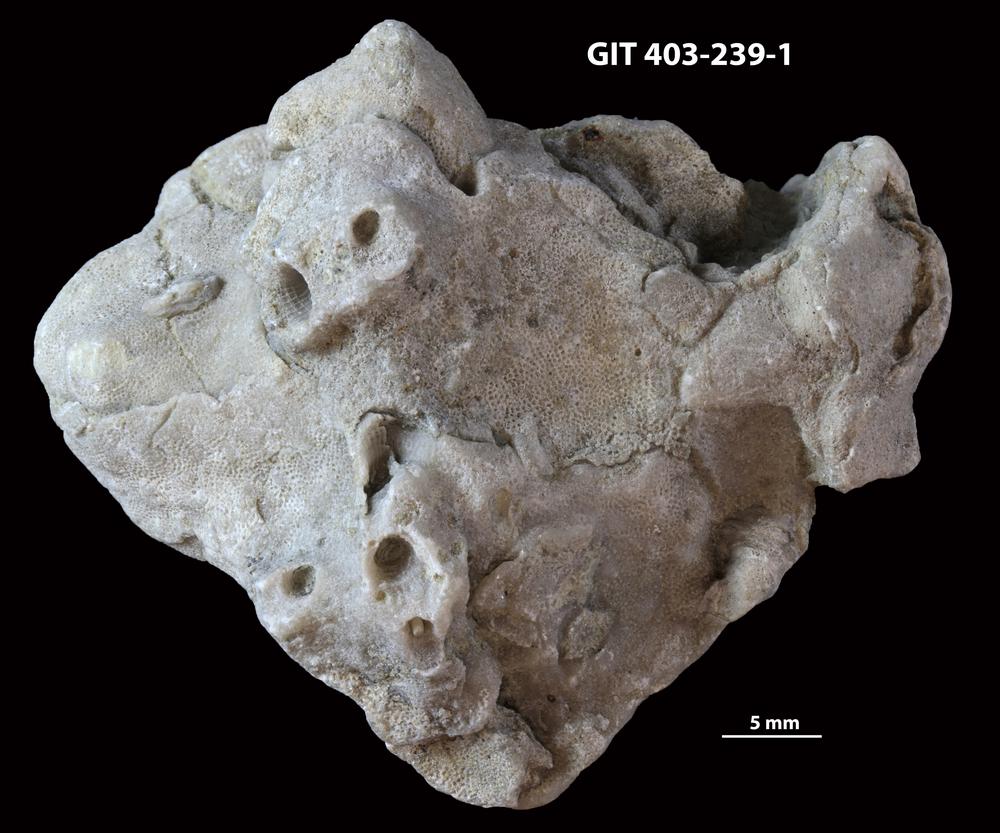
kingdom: Animalia
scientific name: Animalia
